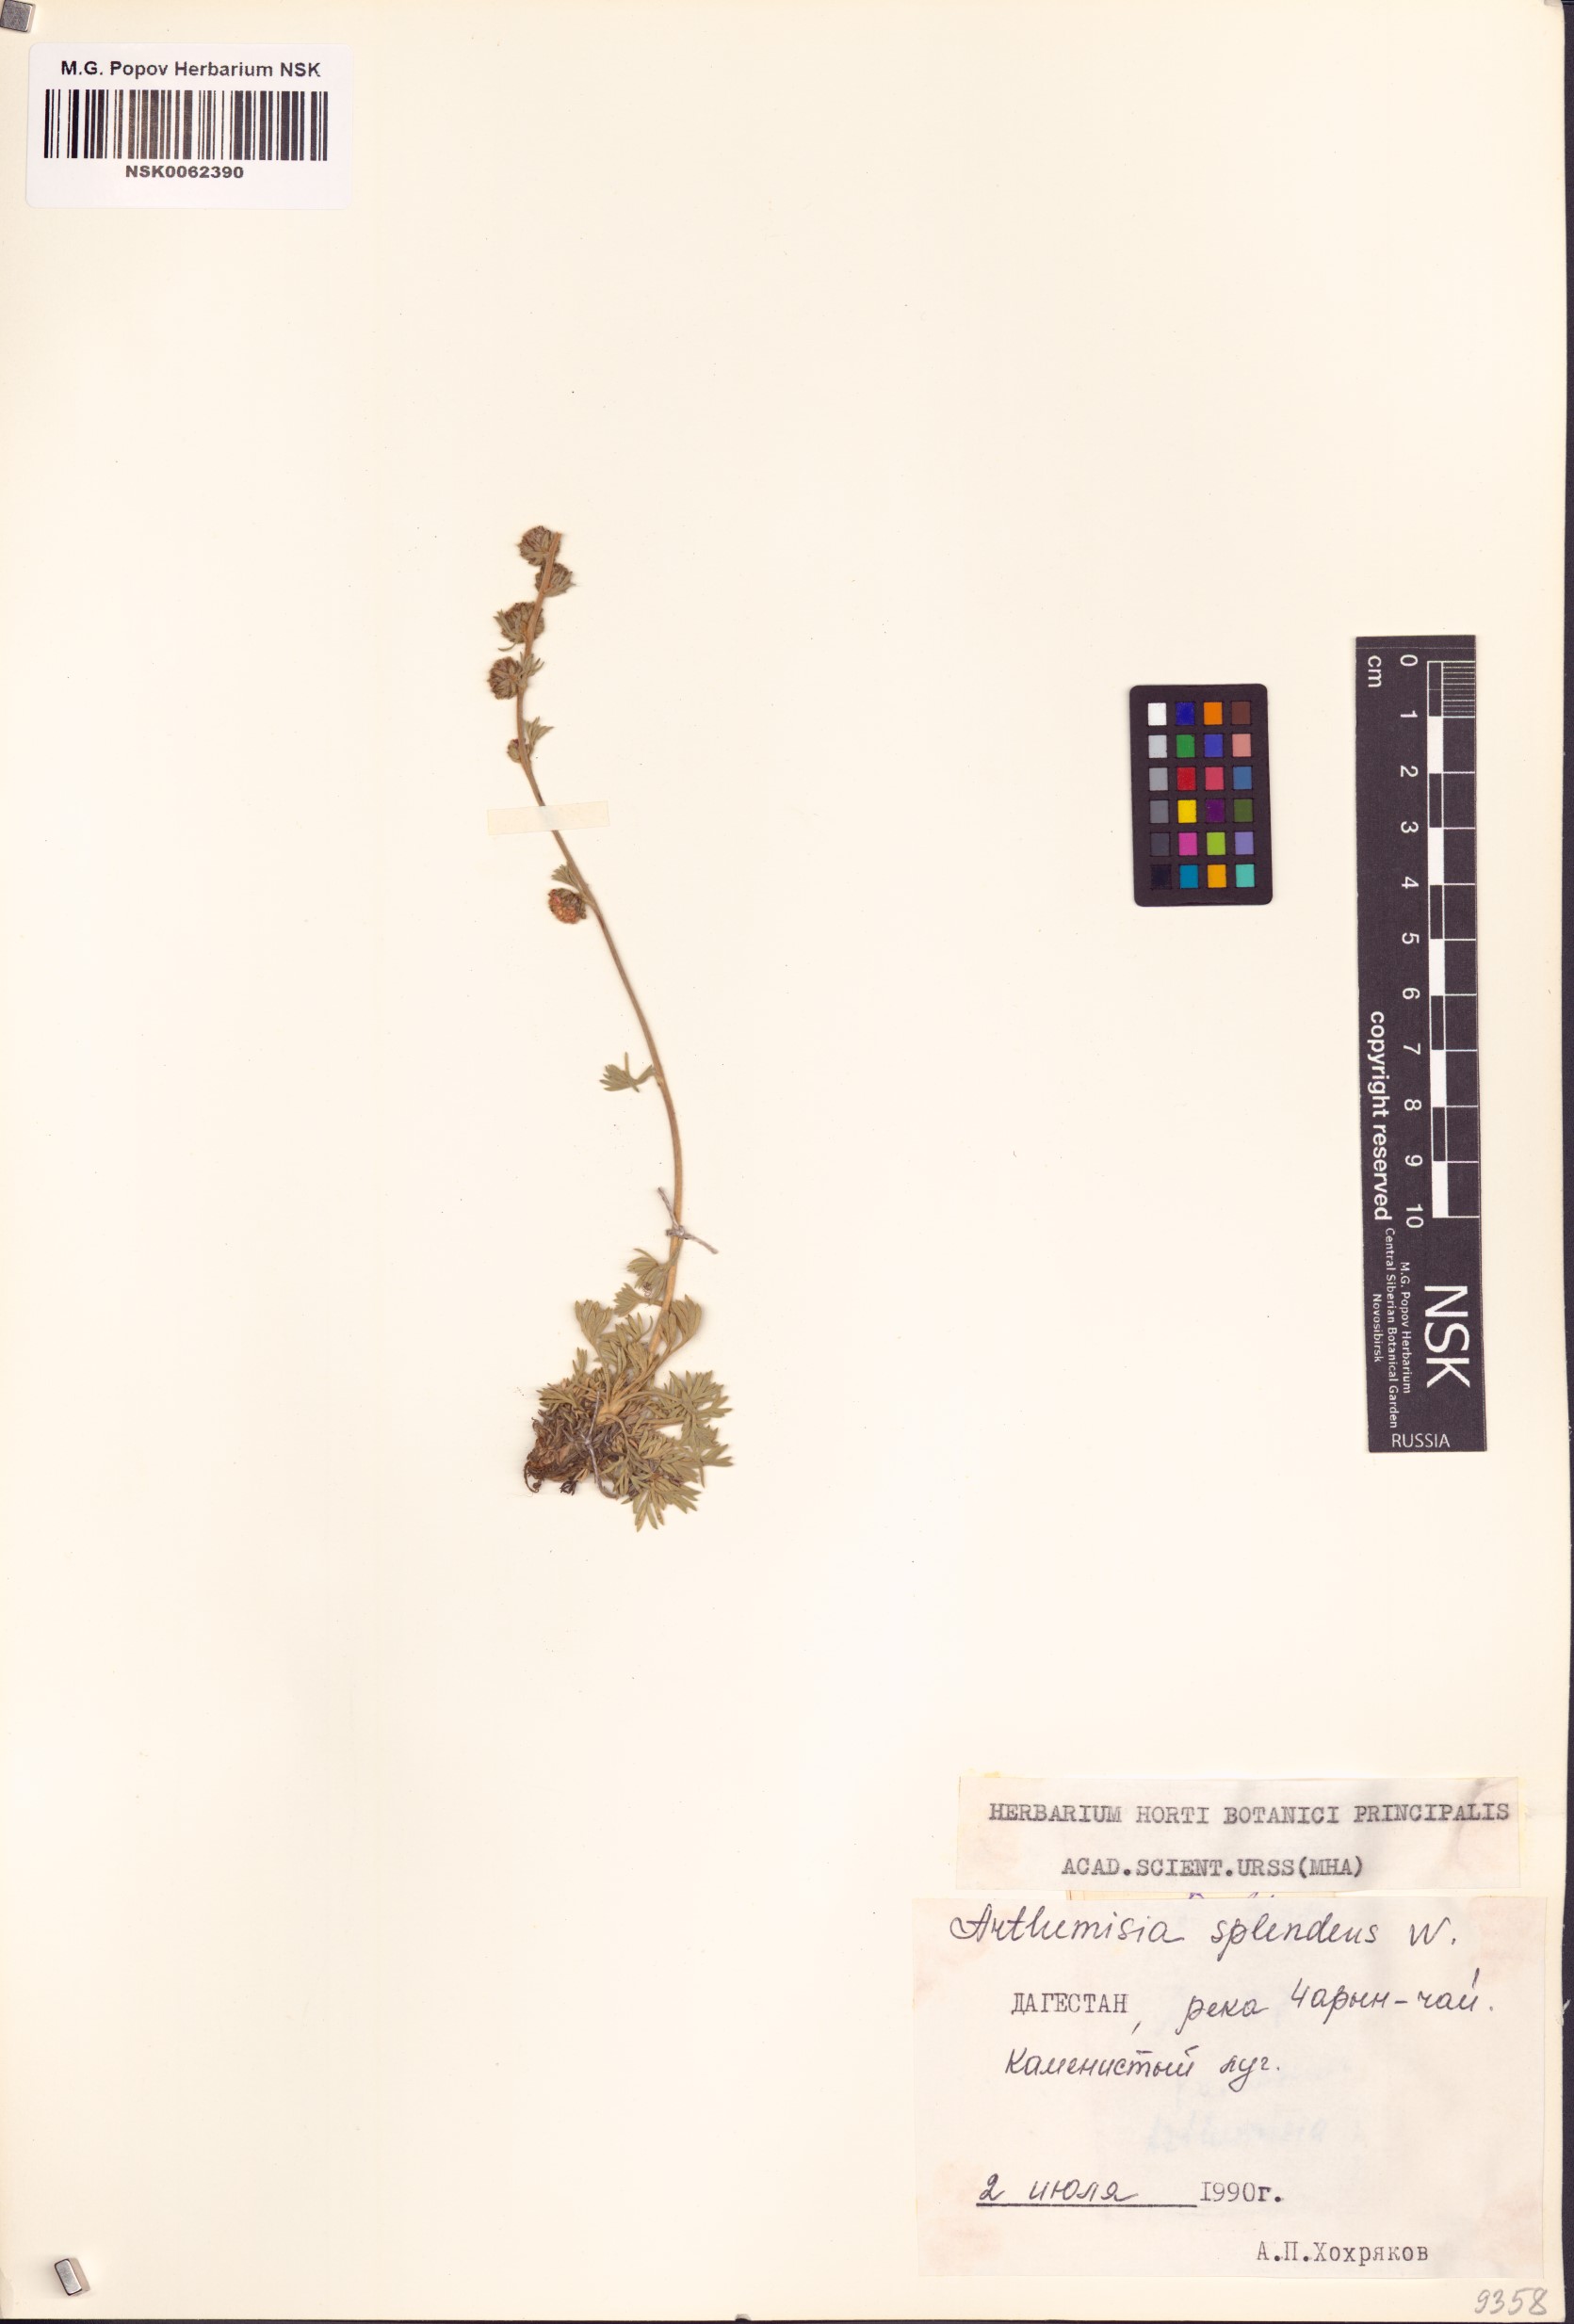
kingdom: Plantae
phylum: Tracheophyta
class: Magnoliopsida
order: Asterales
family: Asteraceae
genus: Artemisia
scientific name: Artemisia splendens
